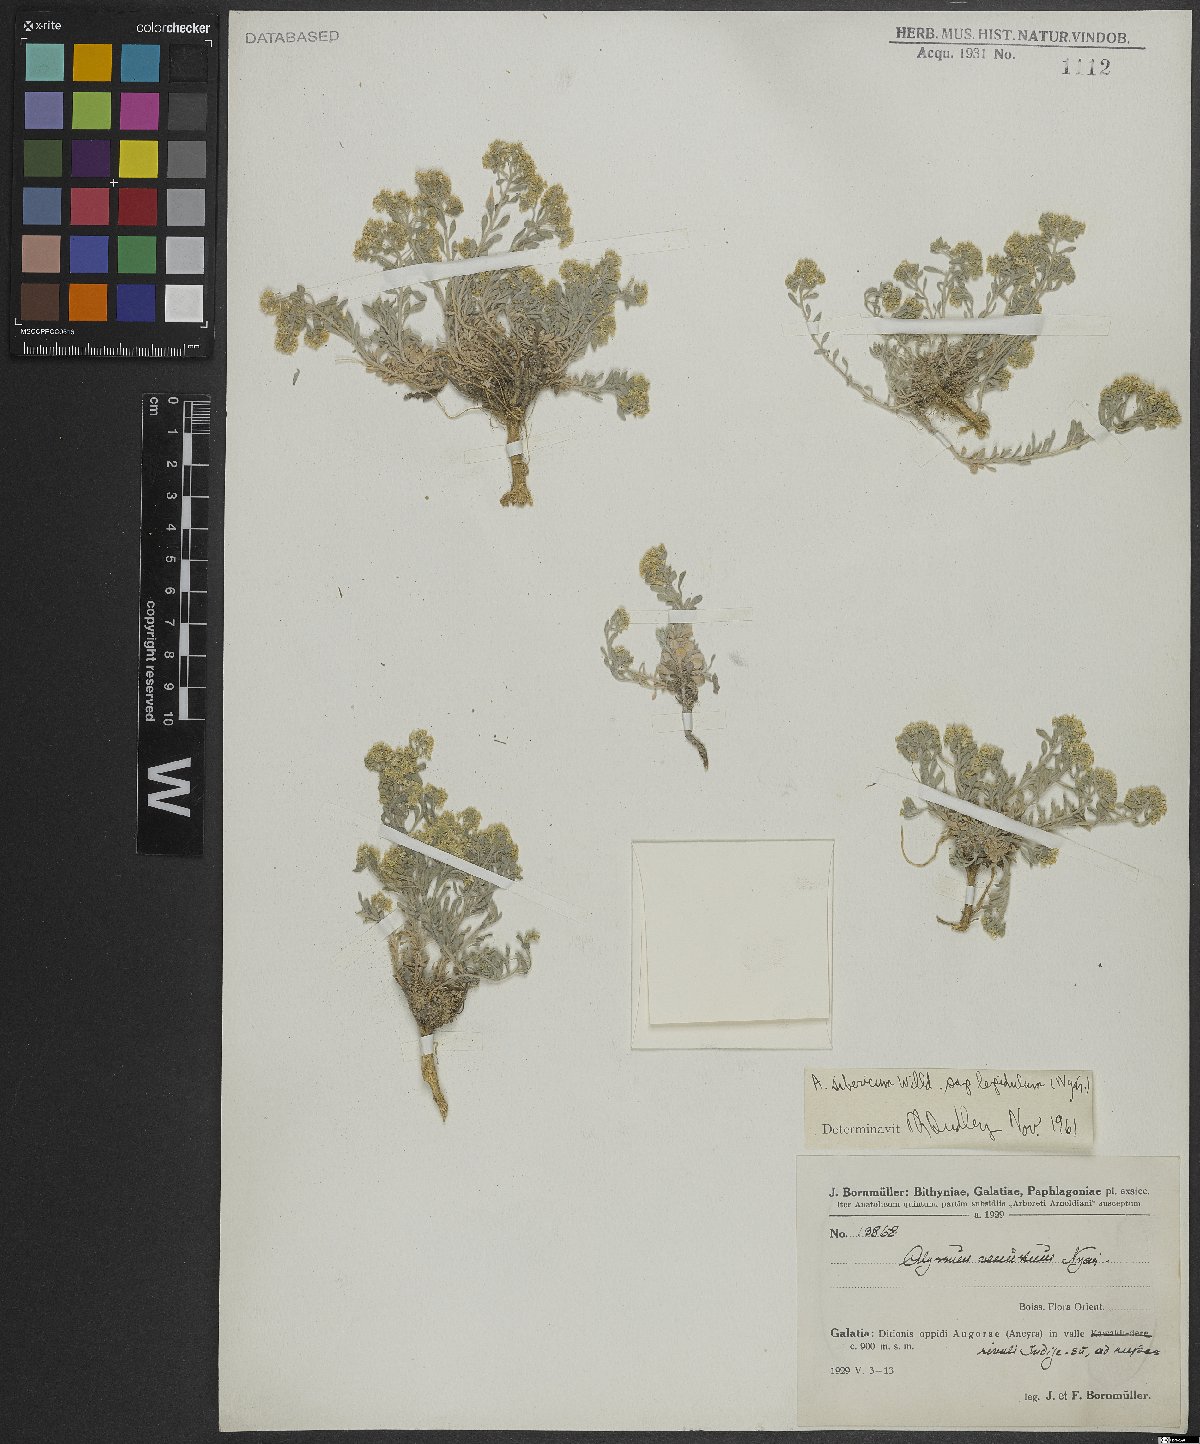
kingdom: Plantae
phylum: Tracheophyta
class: Magnoliopsida
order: Brassicales
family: Brassicaceae
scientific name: Brassicaceae
